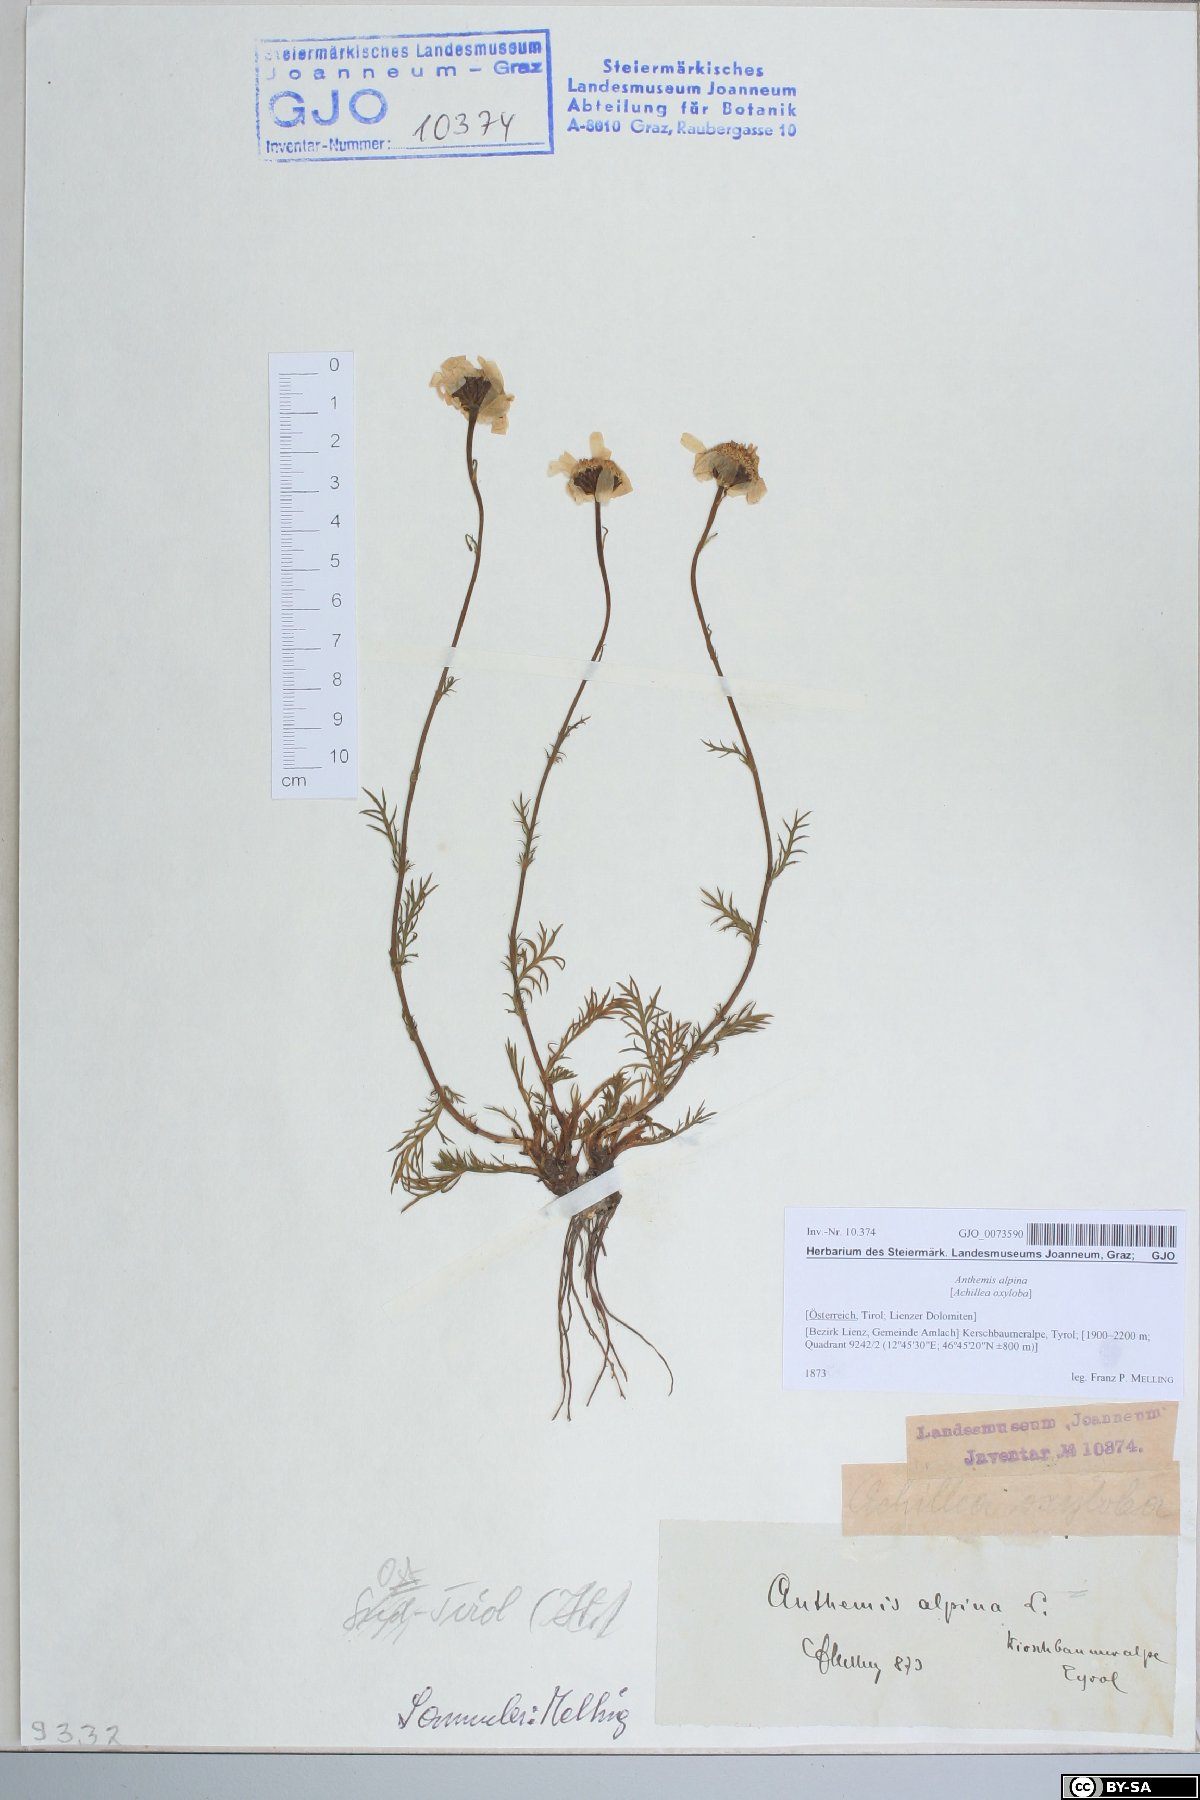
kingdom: Plantae
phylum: Tracheophyta
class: Magnoliopsida
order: Asterales
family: Asteraceae
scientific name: Asteraceae
